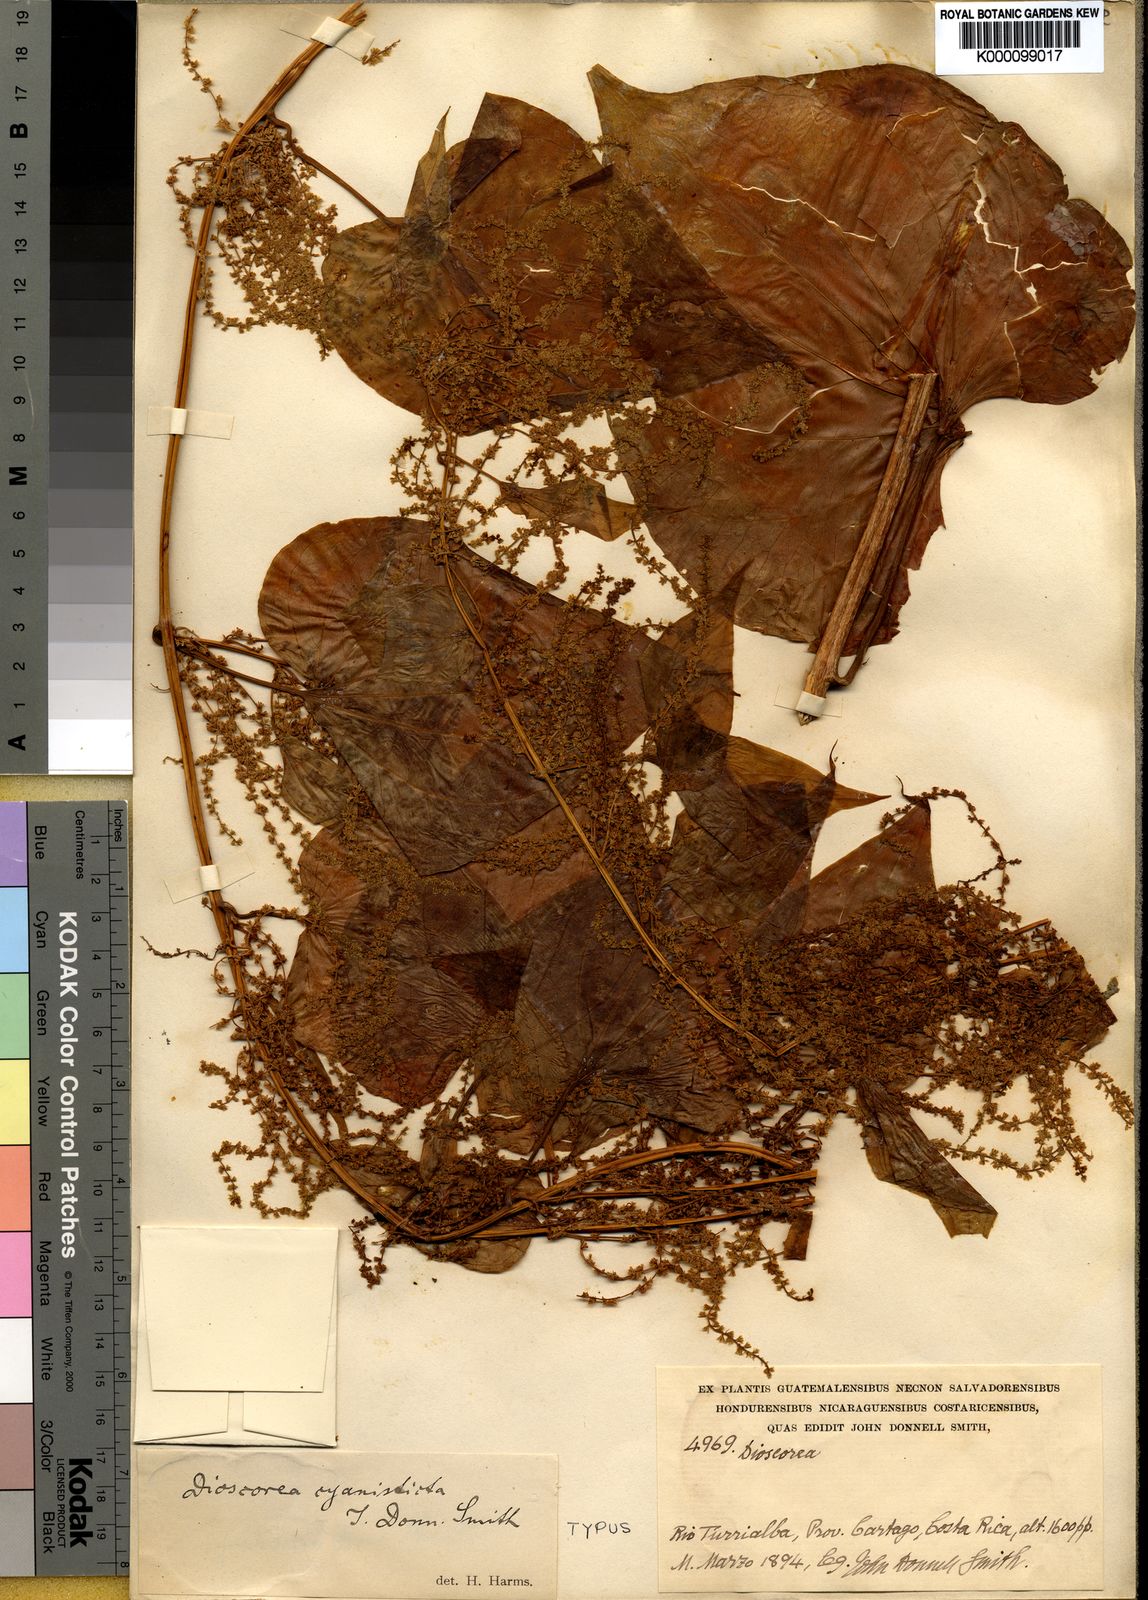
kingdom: Plantae
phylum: Tracheophyta
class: Liliopsida
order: Dioscoreales
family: Dioscoreaceae
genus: Dioscorea
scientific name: Dioscorea cyanisticta
